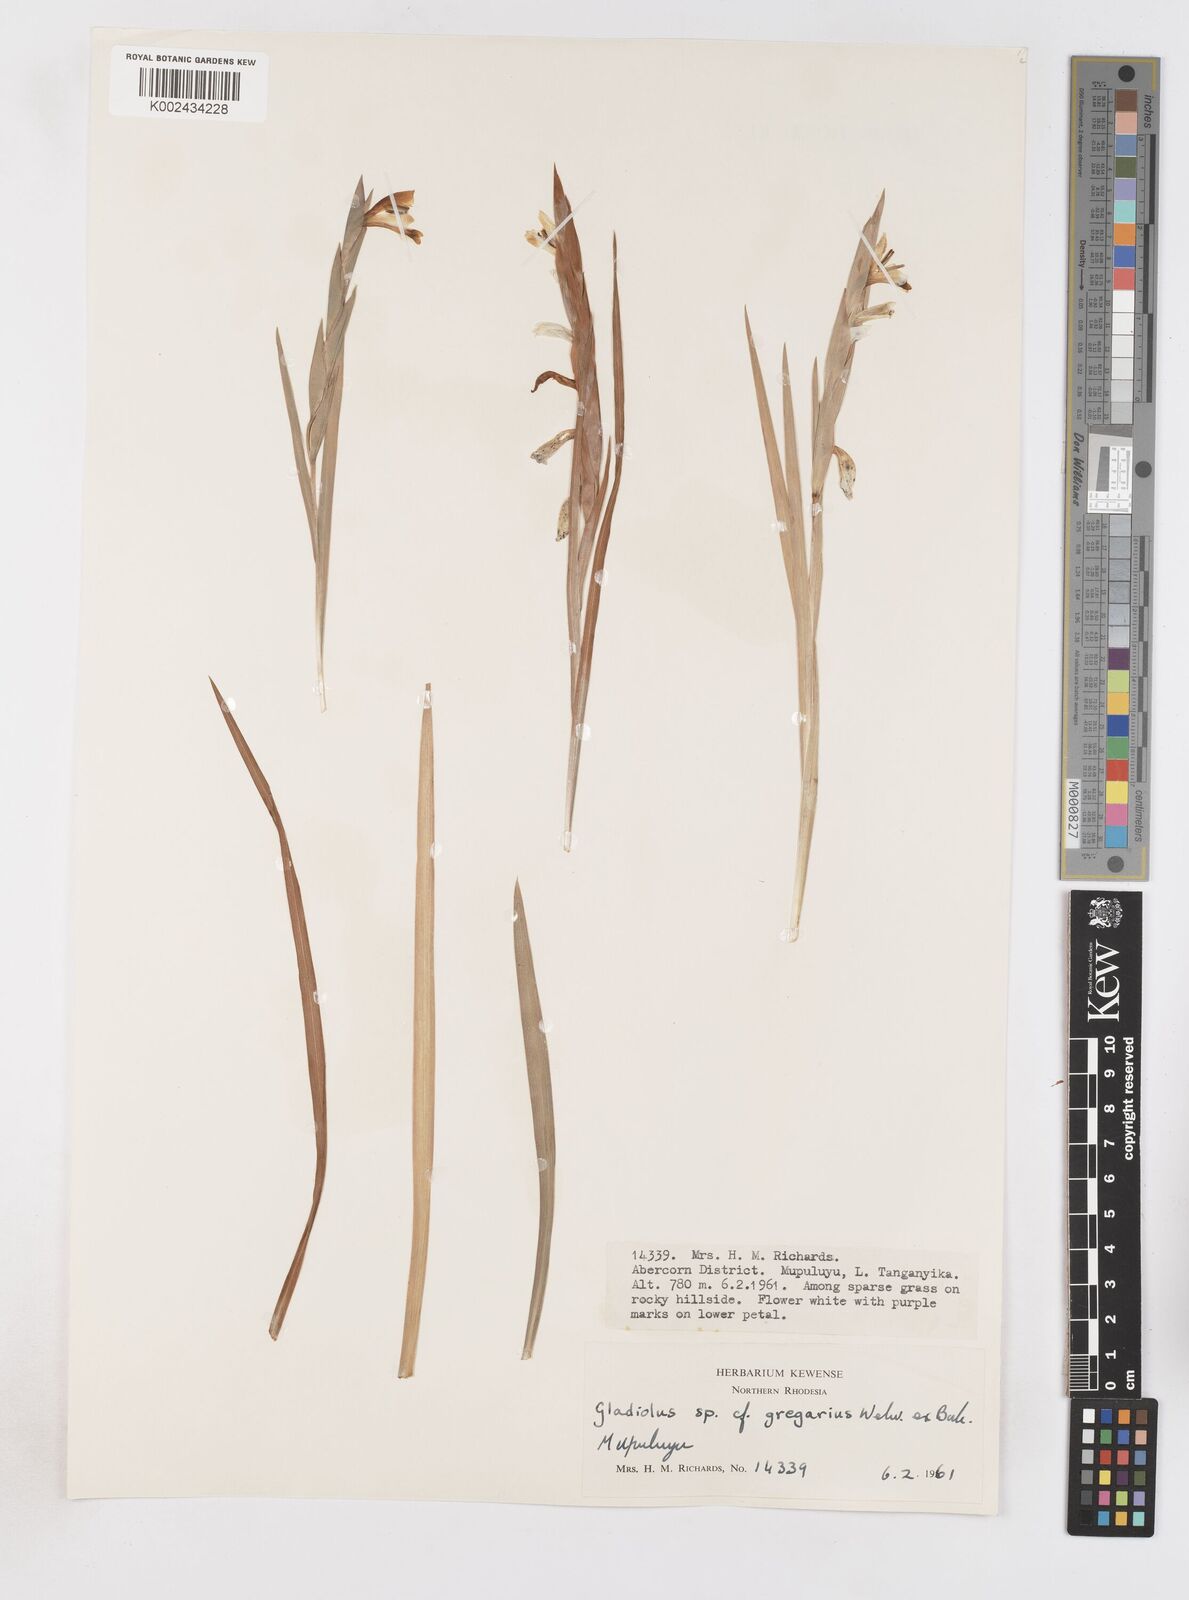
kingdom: Plantae
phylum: Tracheophyta
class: Liliopsida
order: Asparagales
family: Iridaceae
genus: Gladiolus
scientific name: Gladiolus gregarius
